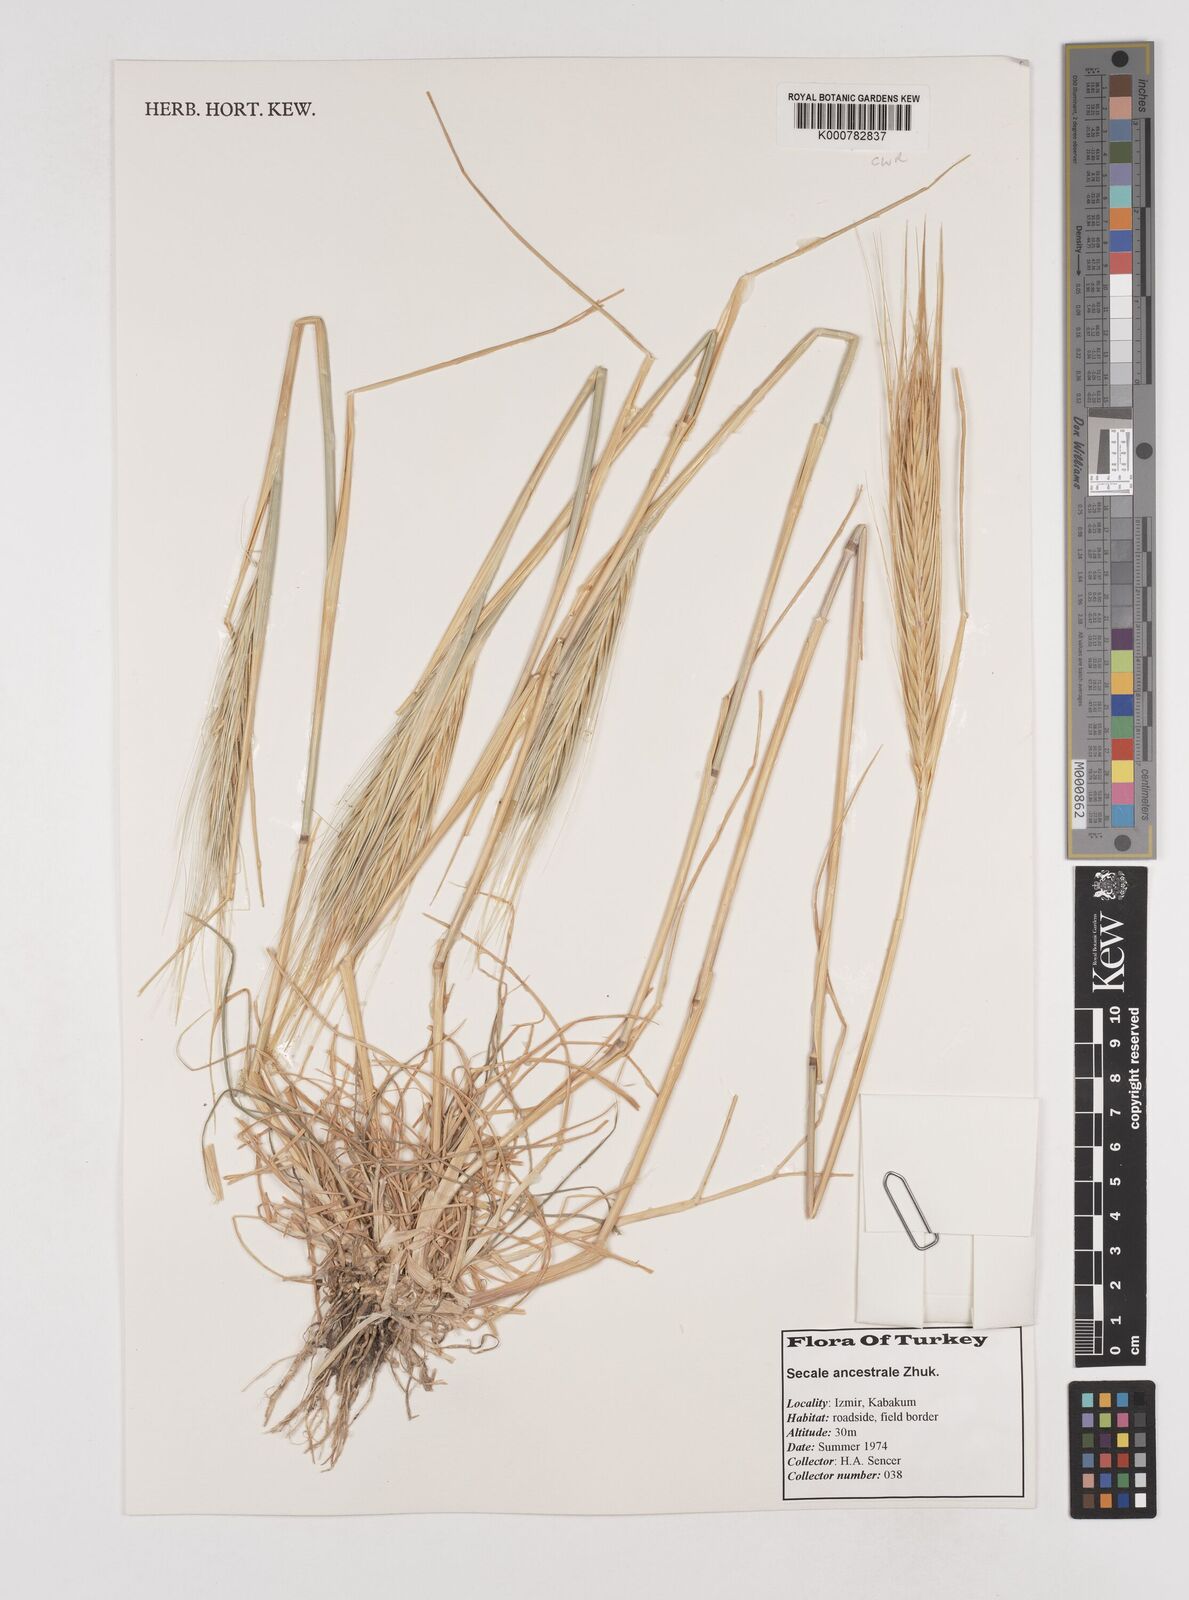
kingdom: Plantae
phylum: Tracheophyta
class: Liliopsida
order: Poales
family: Poaceae
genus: Secale
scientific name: Secale cereale
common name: Rye
